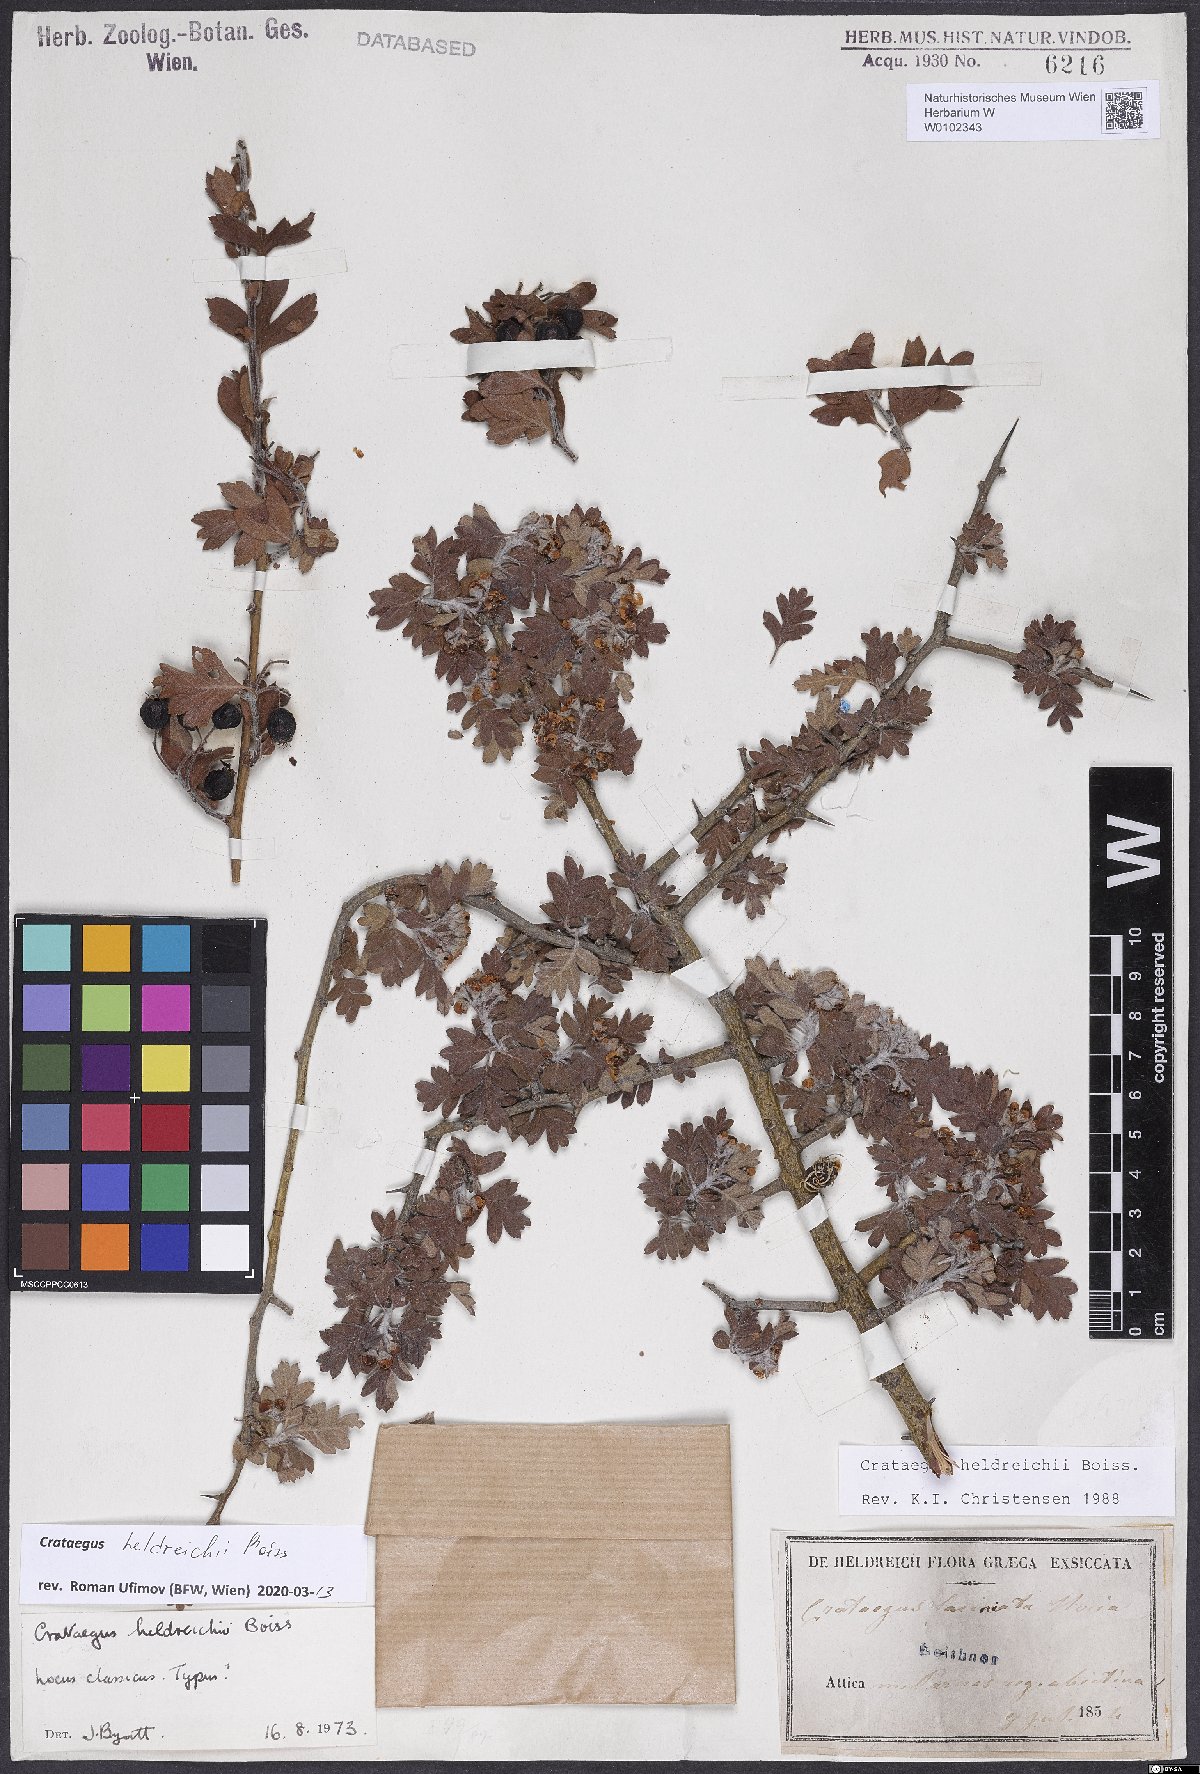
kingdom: Plantae
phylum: Tracheophyta
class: Magnoliopsida
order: Rosales
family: Rosaceae
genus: Crataegus
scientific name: Crataegus heldreichii
